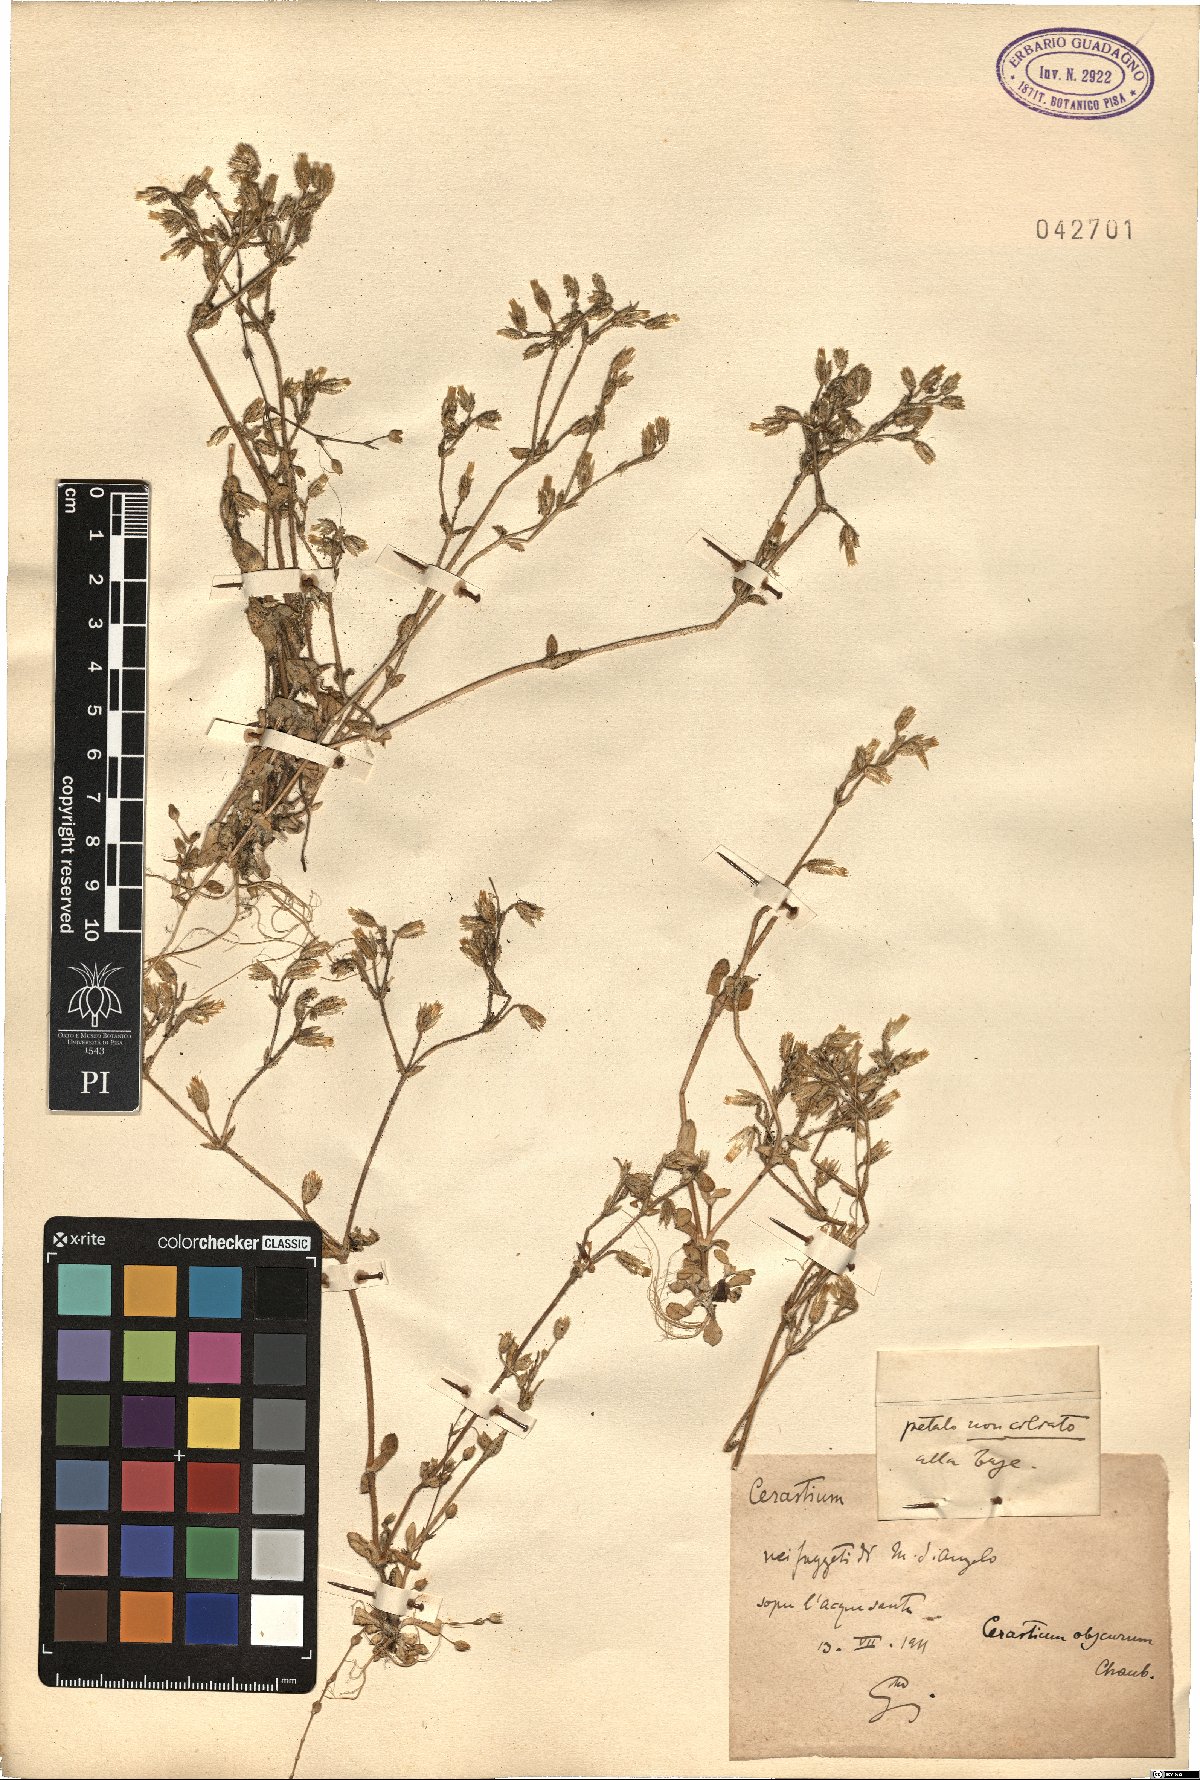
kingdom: Plantae
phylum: Tracheophyta
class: Magnoliopsida
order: Caryophyllales
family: Caryophyllaceae
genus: Cerastium
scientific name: Cerastium pumilum
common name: Dwarf mouse-ear
